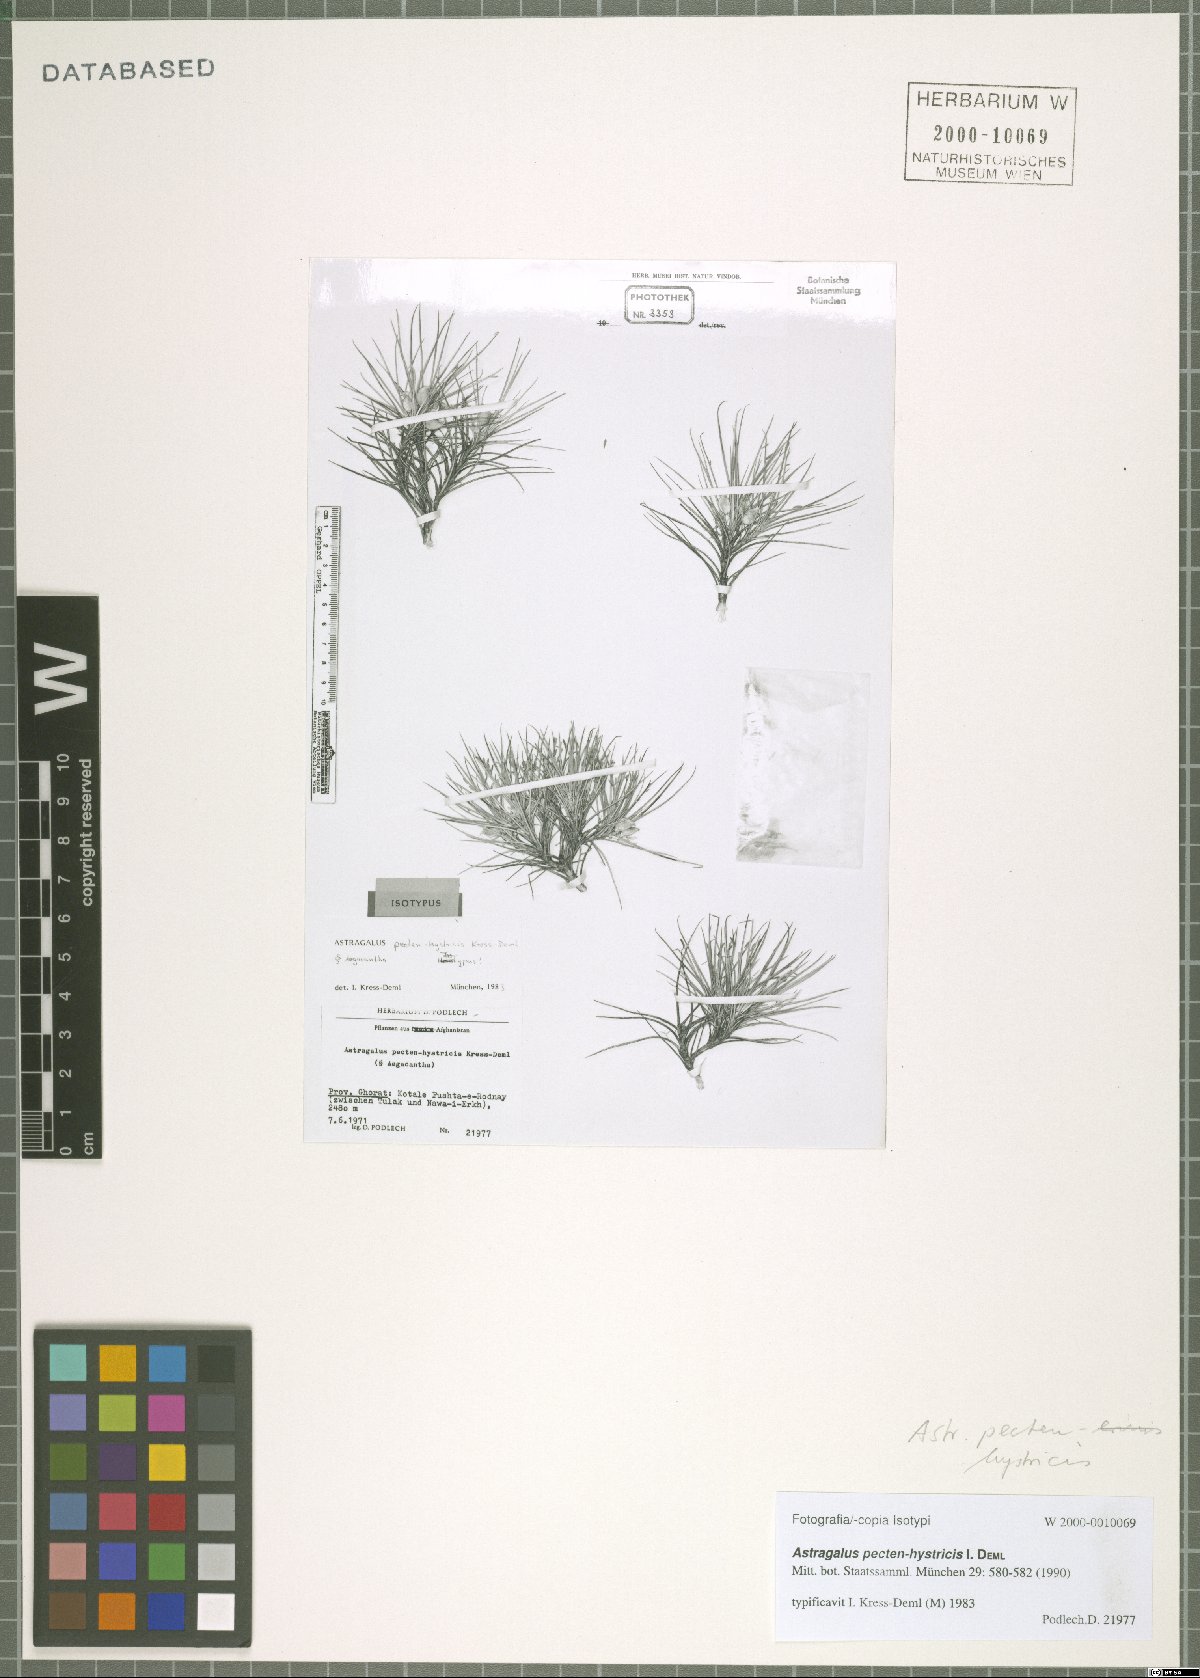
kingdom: Plantae
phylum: Tracheophyta
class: Magnoliopsida
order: Fabales
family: Fabaceae
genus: Astragalus
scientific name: Astragalus pecten-hystricis
